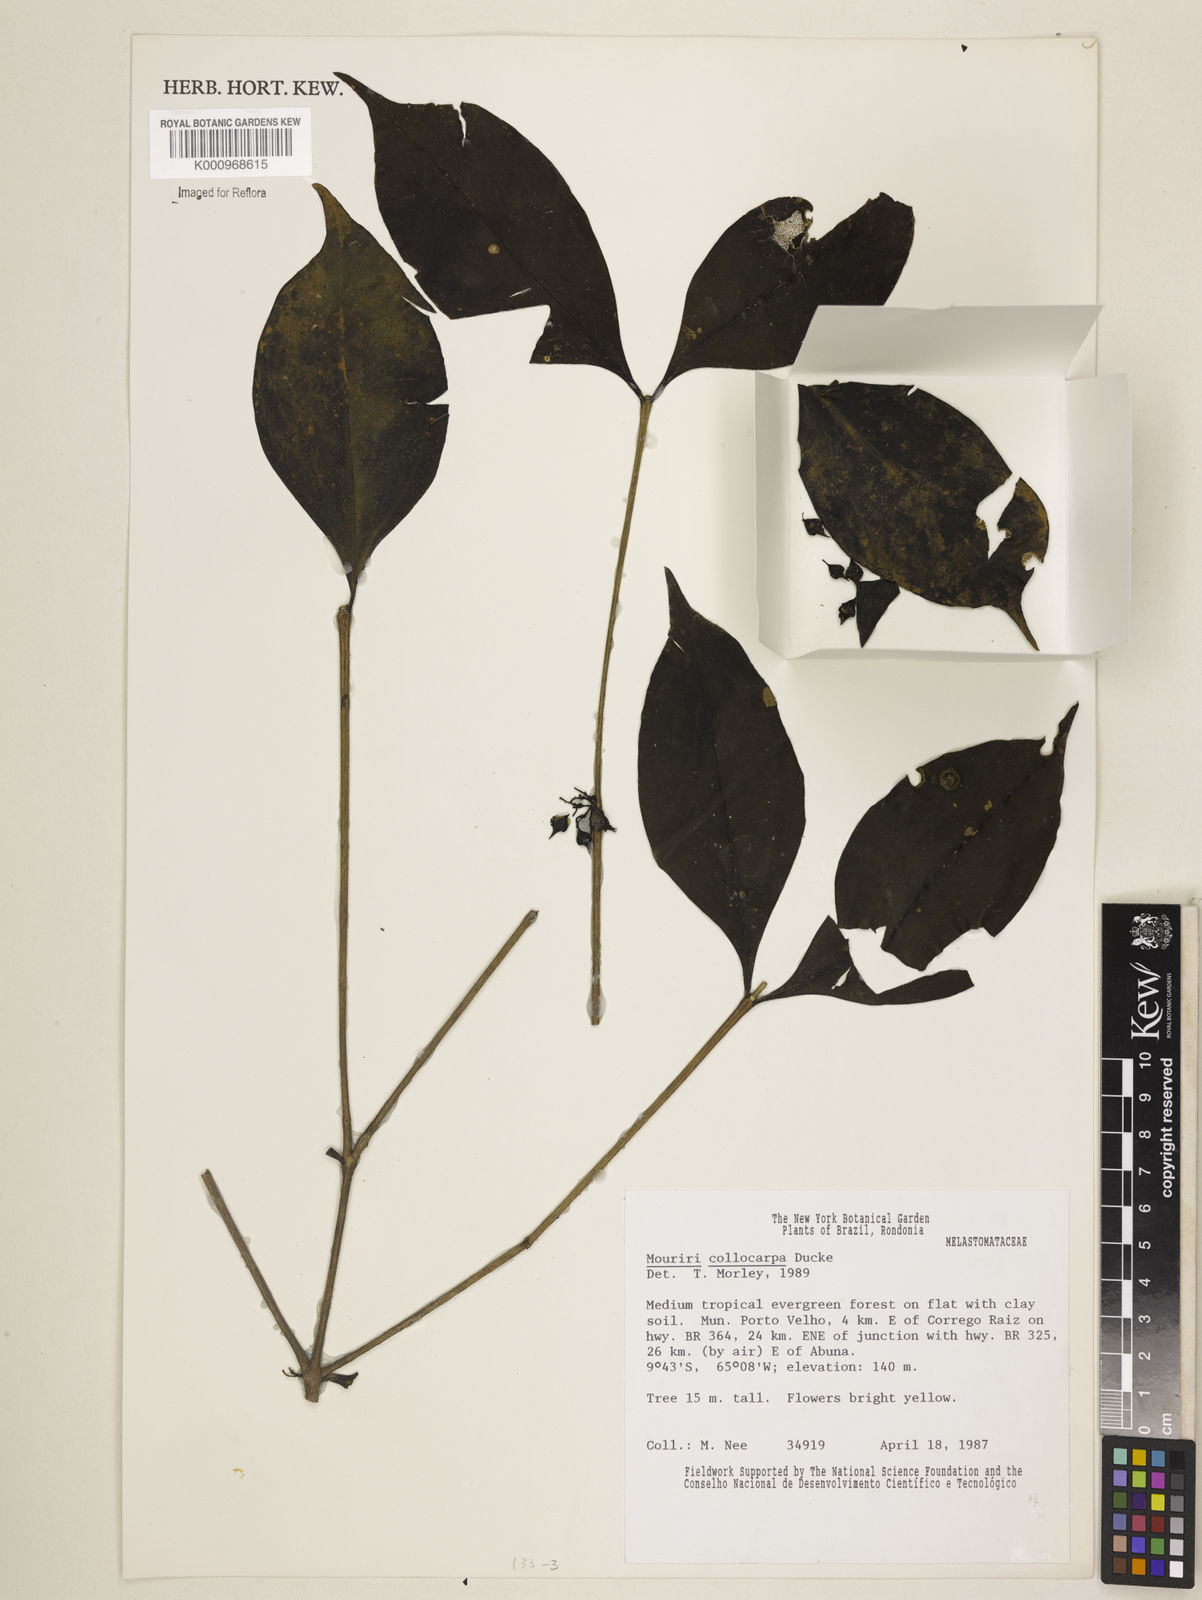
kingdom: Plantae
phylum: Tracheophyta
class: Magnoliopsida
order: Myrtales
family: Melastomataceae
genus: Mouriri
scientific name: Mouriri collocarpa
